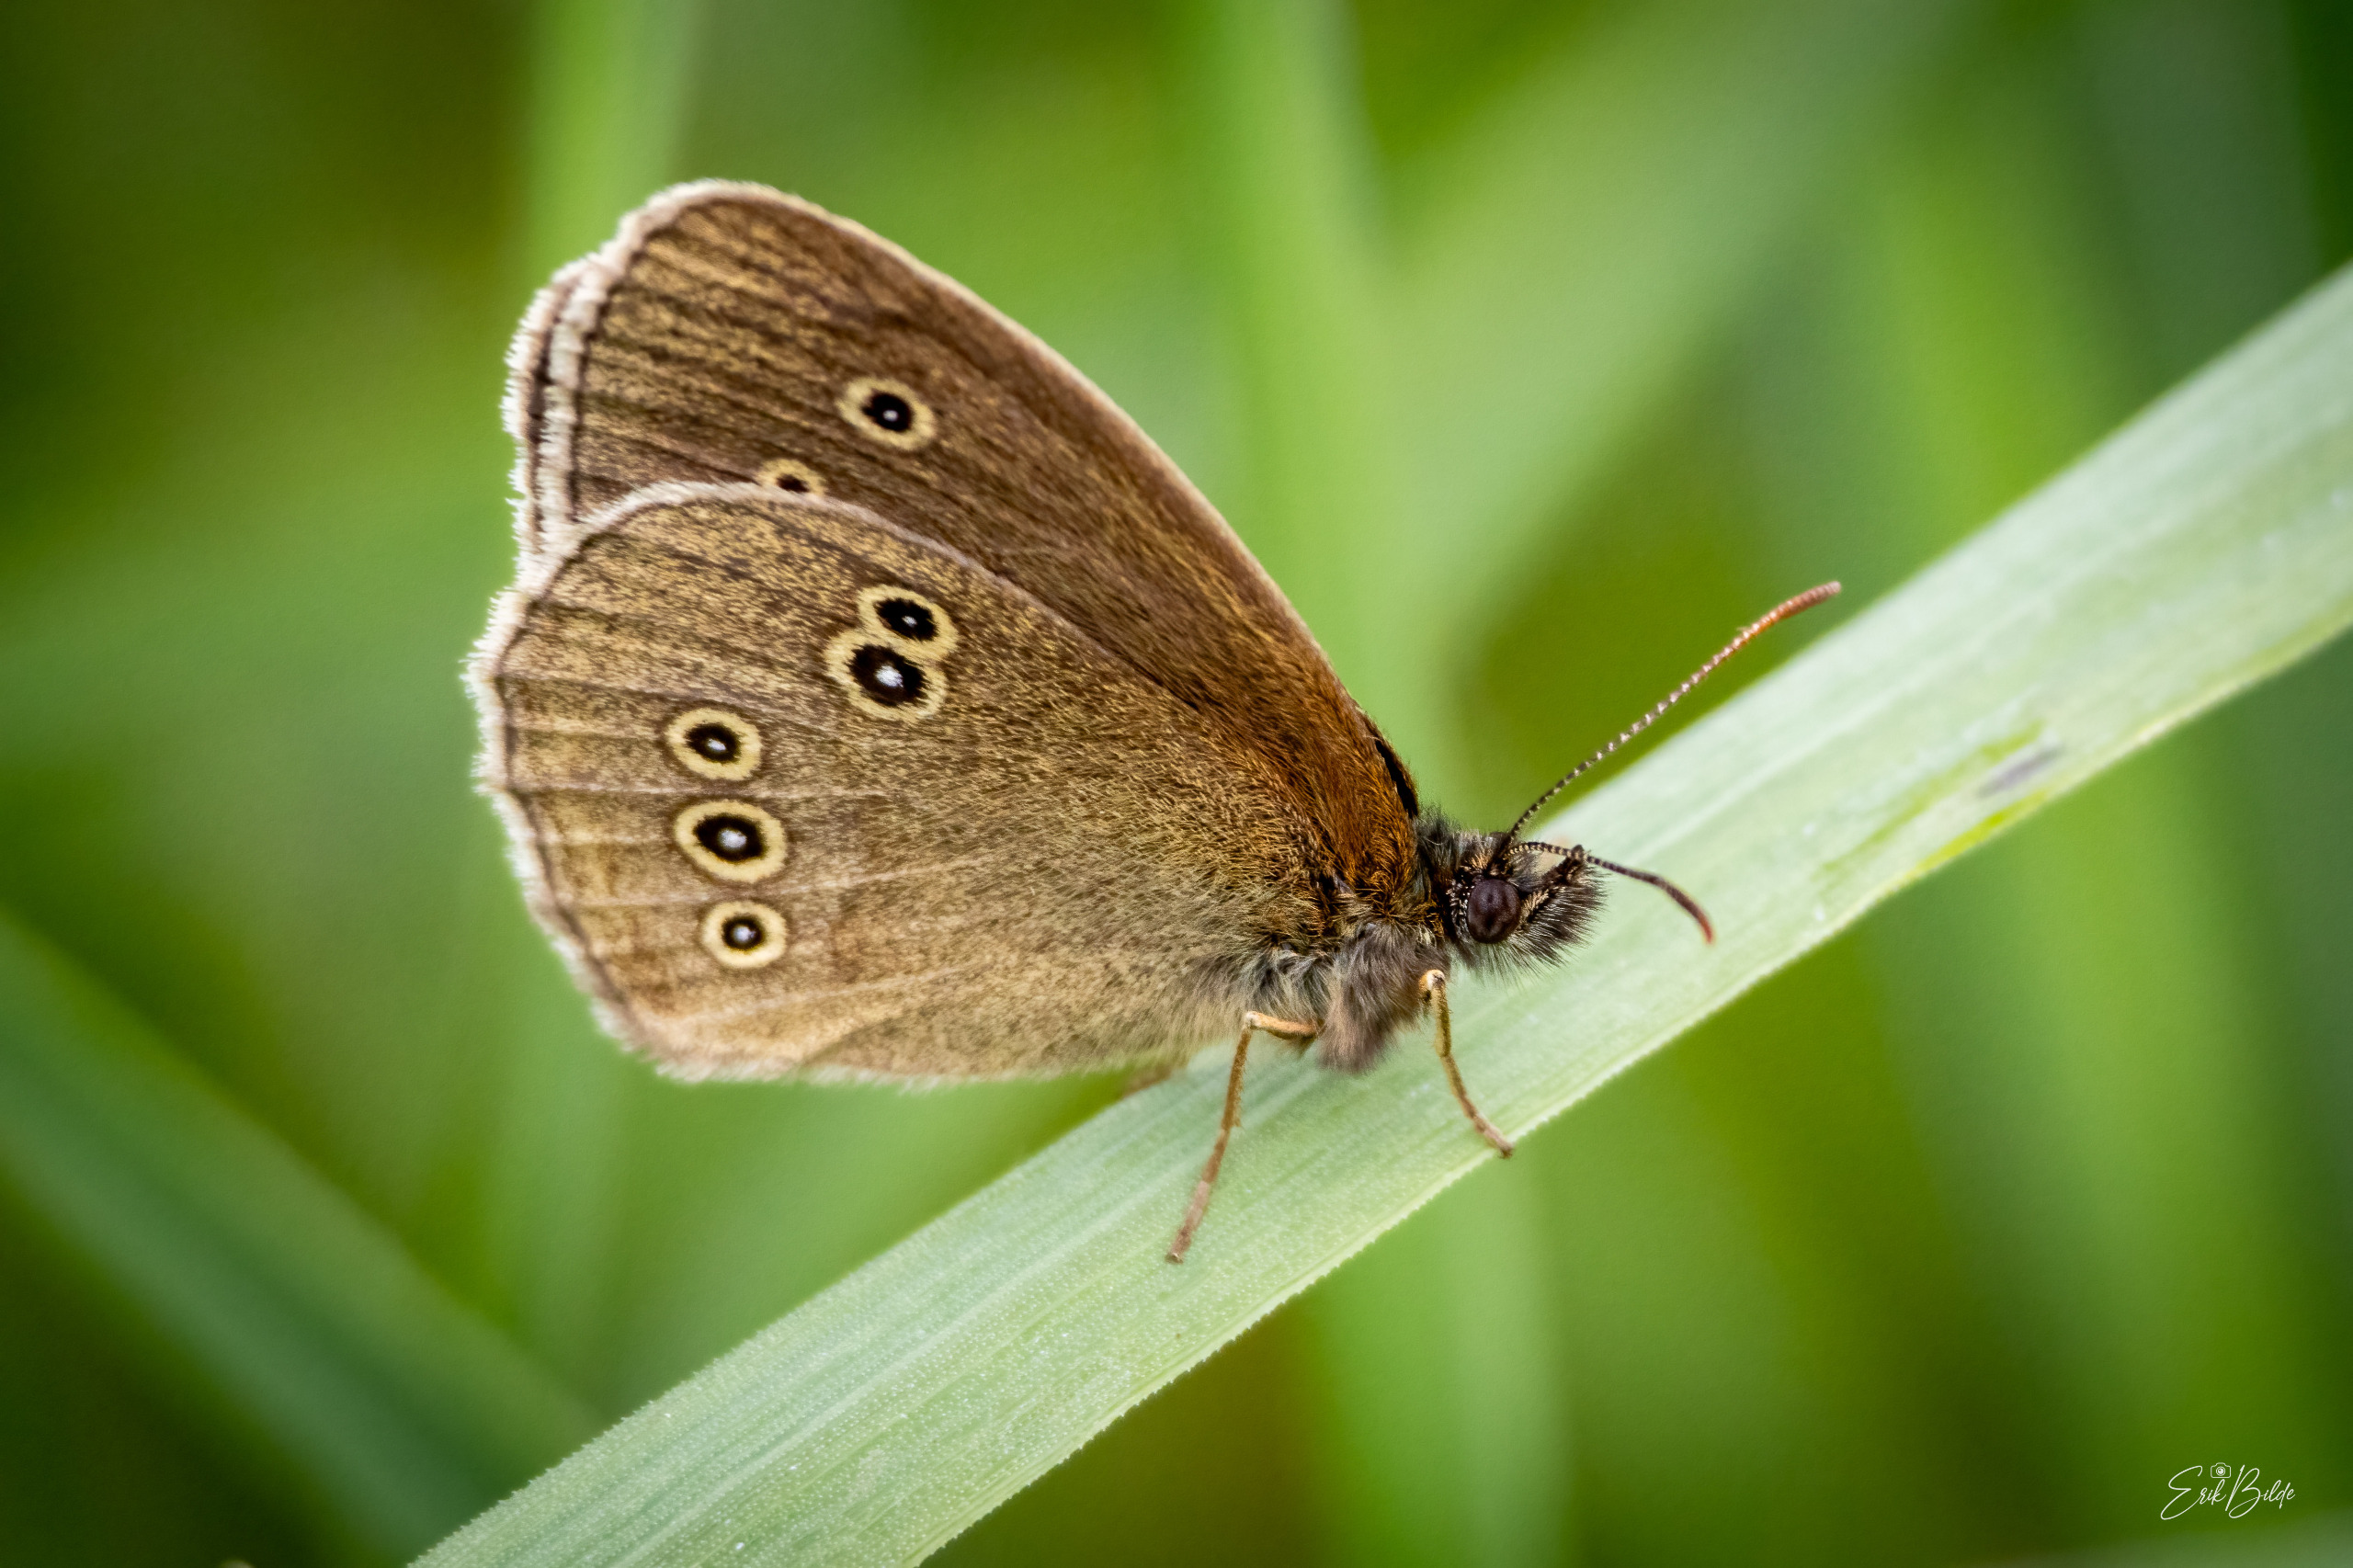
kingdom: Animalia
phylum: Arthropoda
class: Insecta
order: Lepidoptera
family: Nymphalidae
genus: Aphantopus
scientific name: Aphantopus hyperantus
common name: Engrandøje
